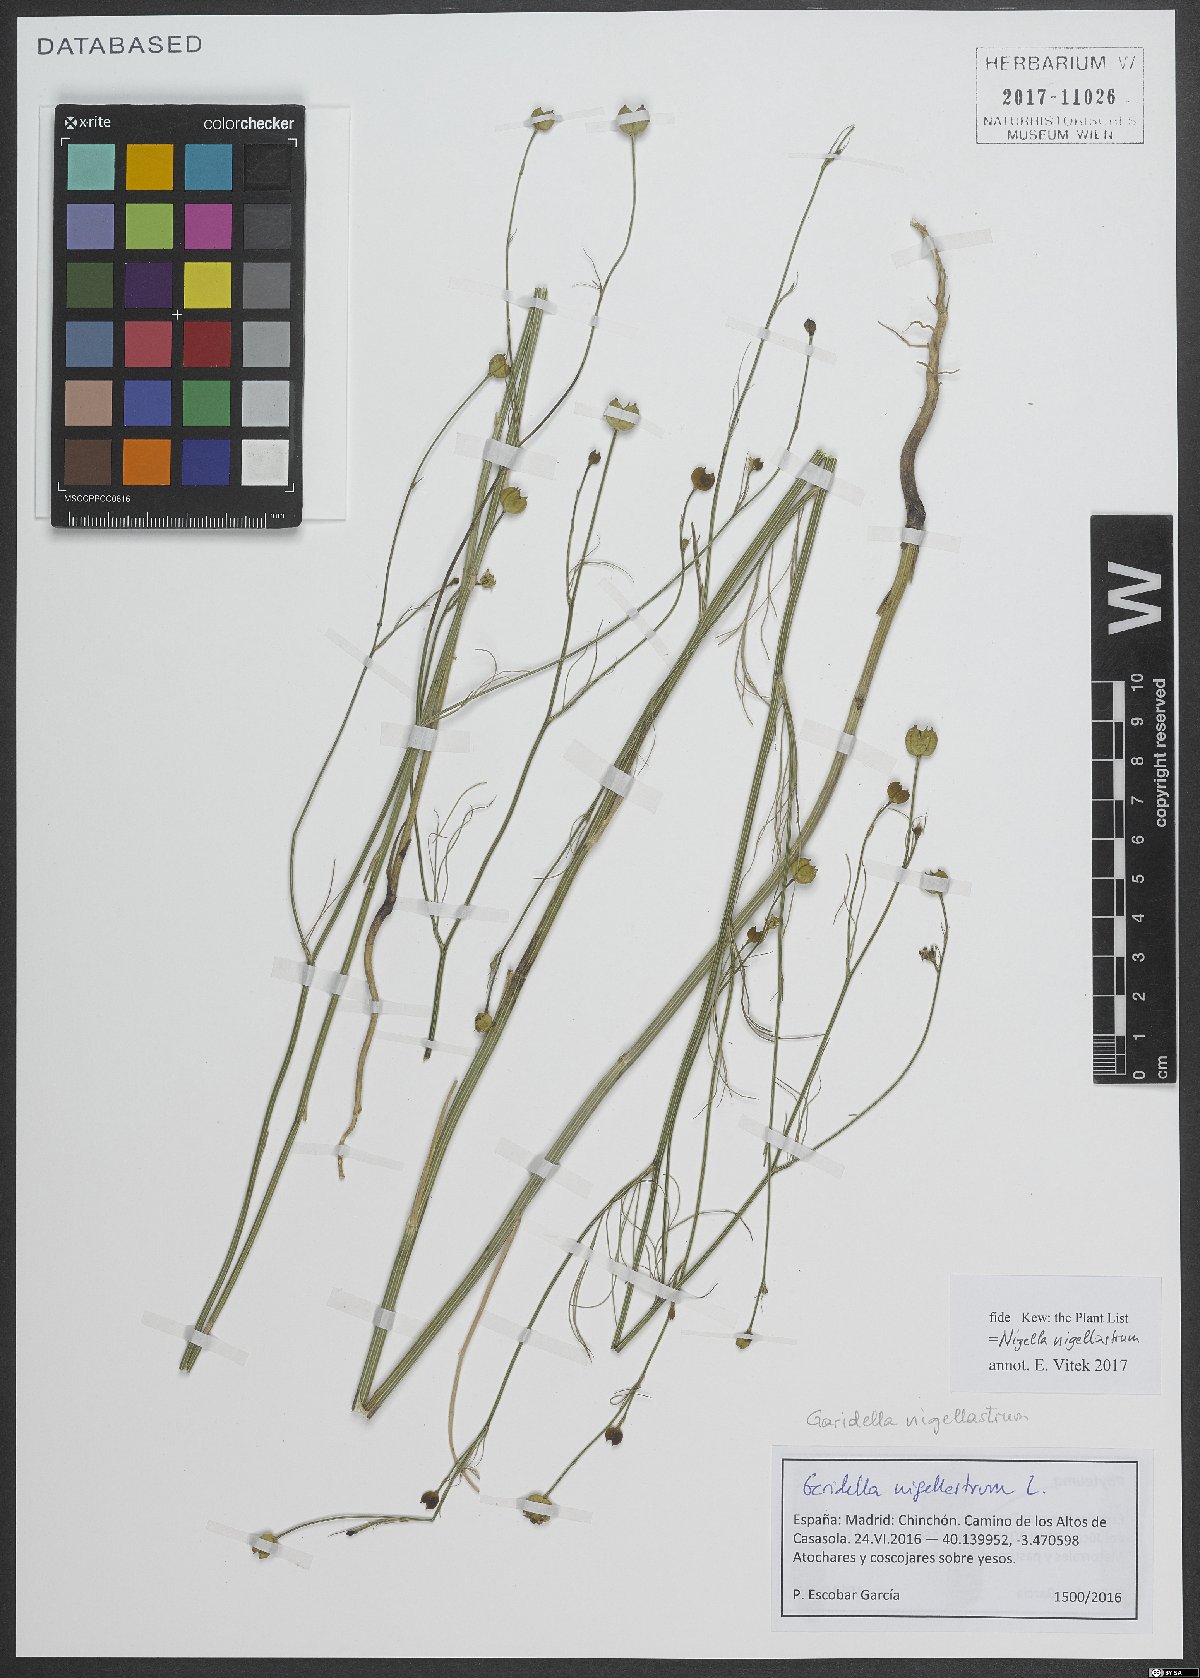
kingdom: Plantae
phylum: Tracheophyta
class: Magnoliopsida
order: Ranunculales
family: Ranunculaceae
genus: Garidella
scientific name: Garidella nigellastrum
